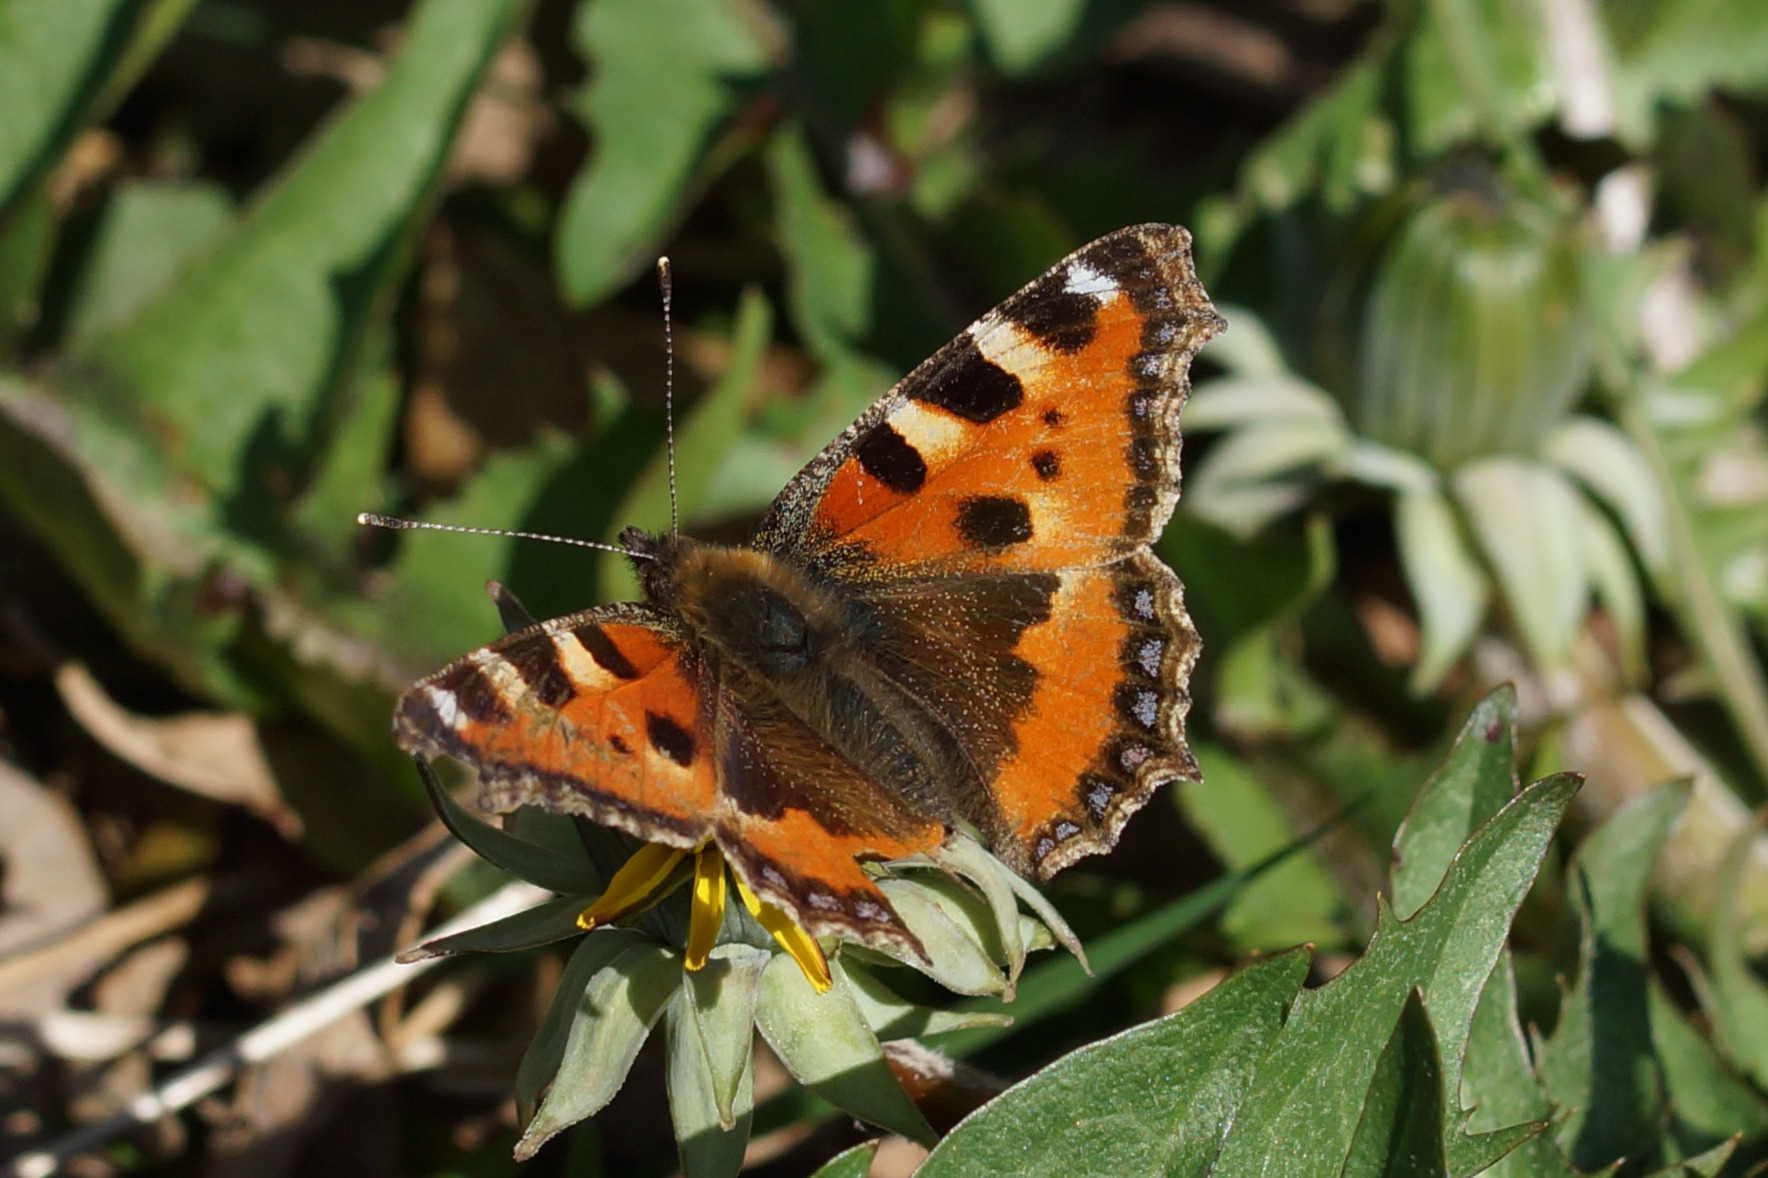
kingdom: Animalia
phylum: Arthropoda
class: Insecta
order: Lepidoptera
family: Nymphalidae
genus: Aglais
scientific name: Aglais urticae
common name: Nældens takvinge
